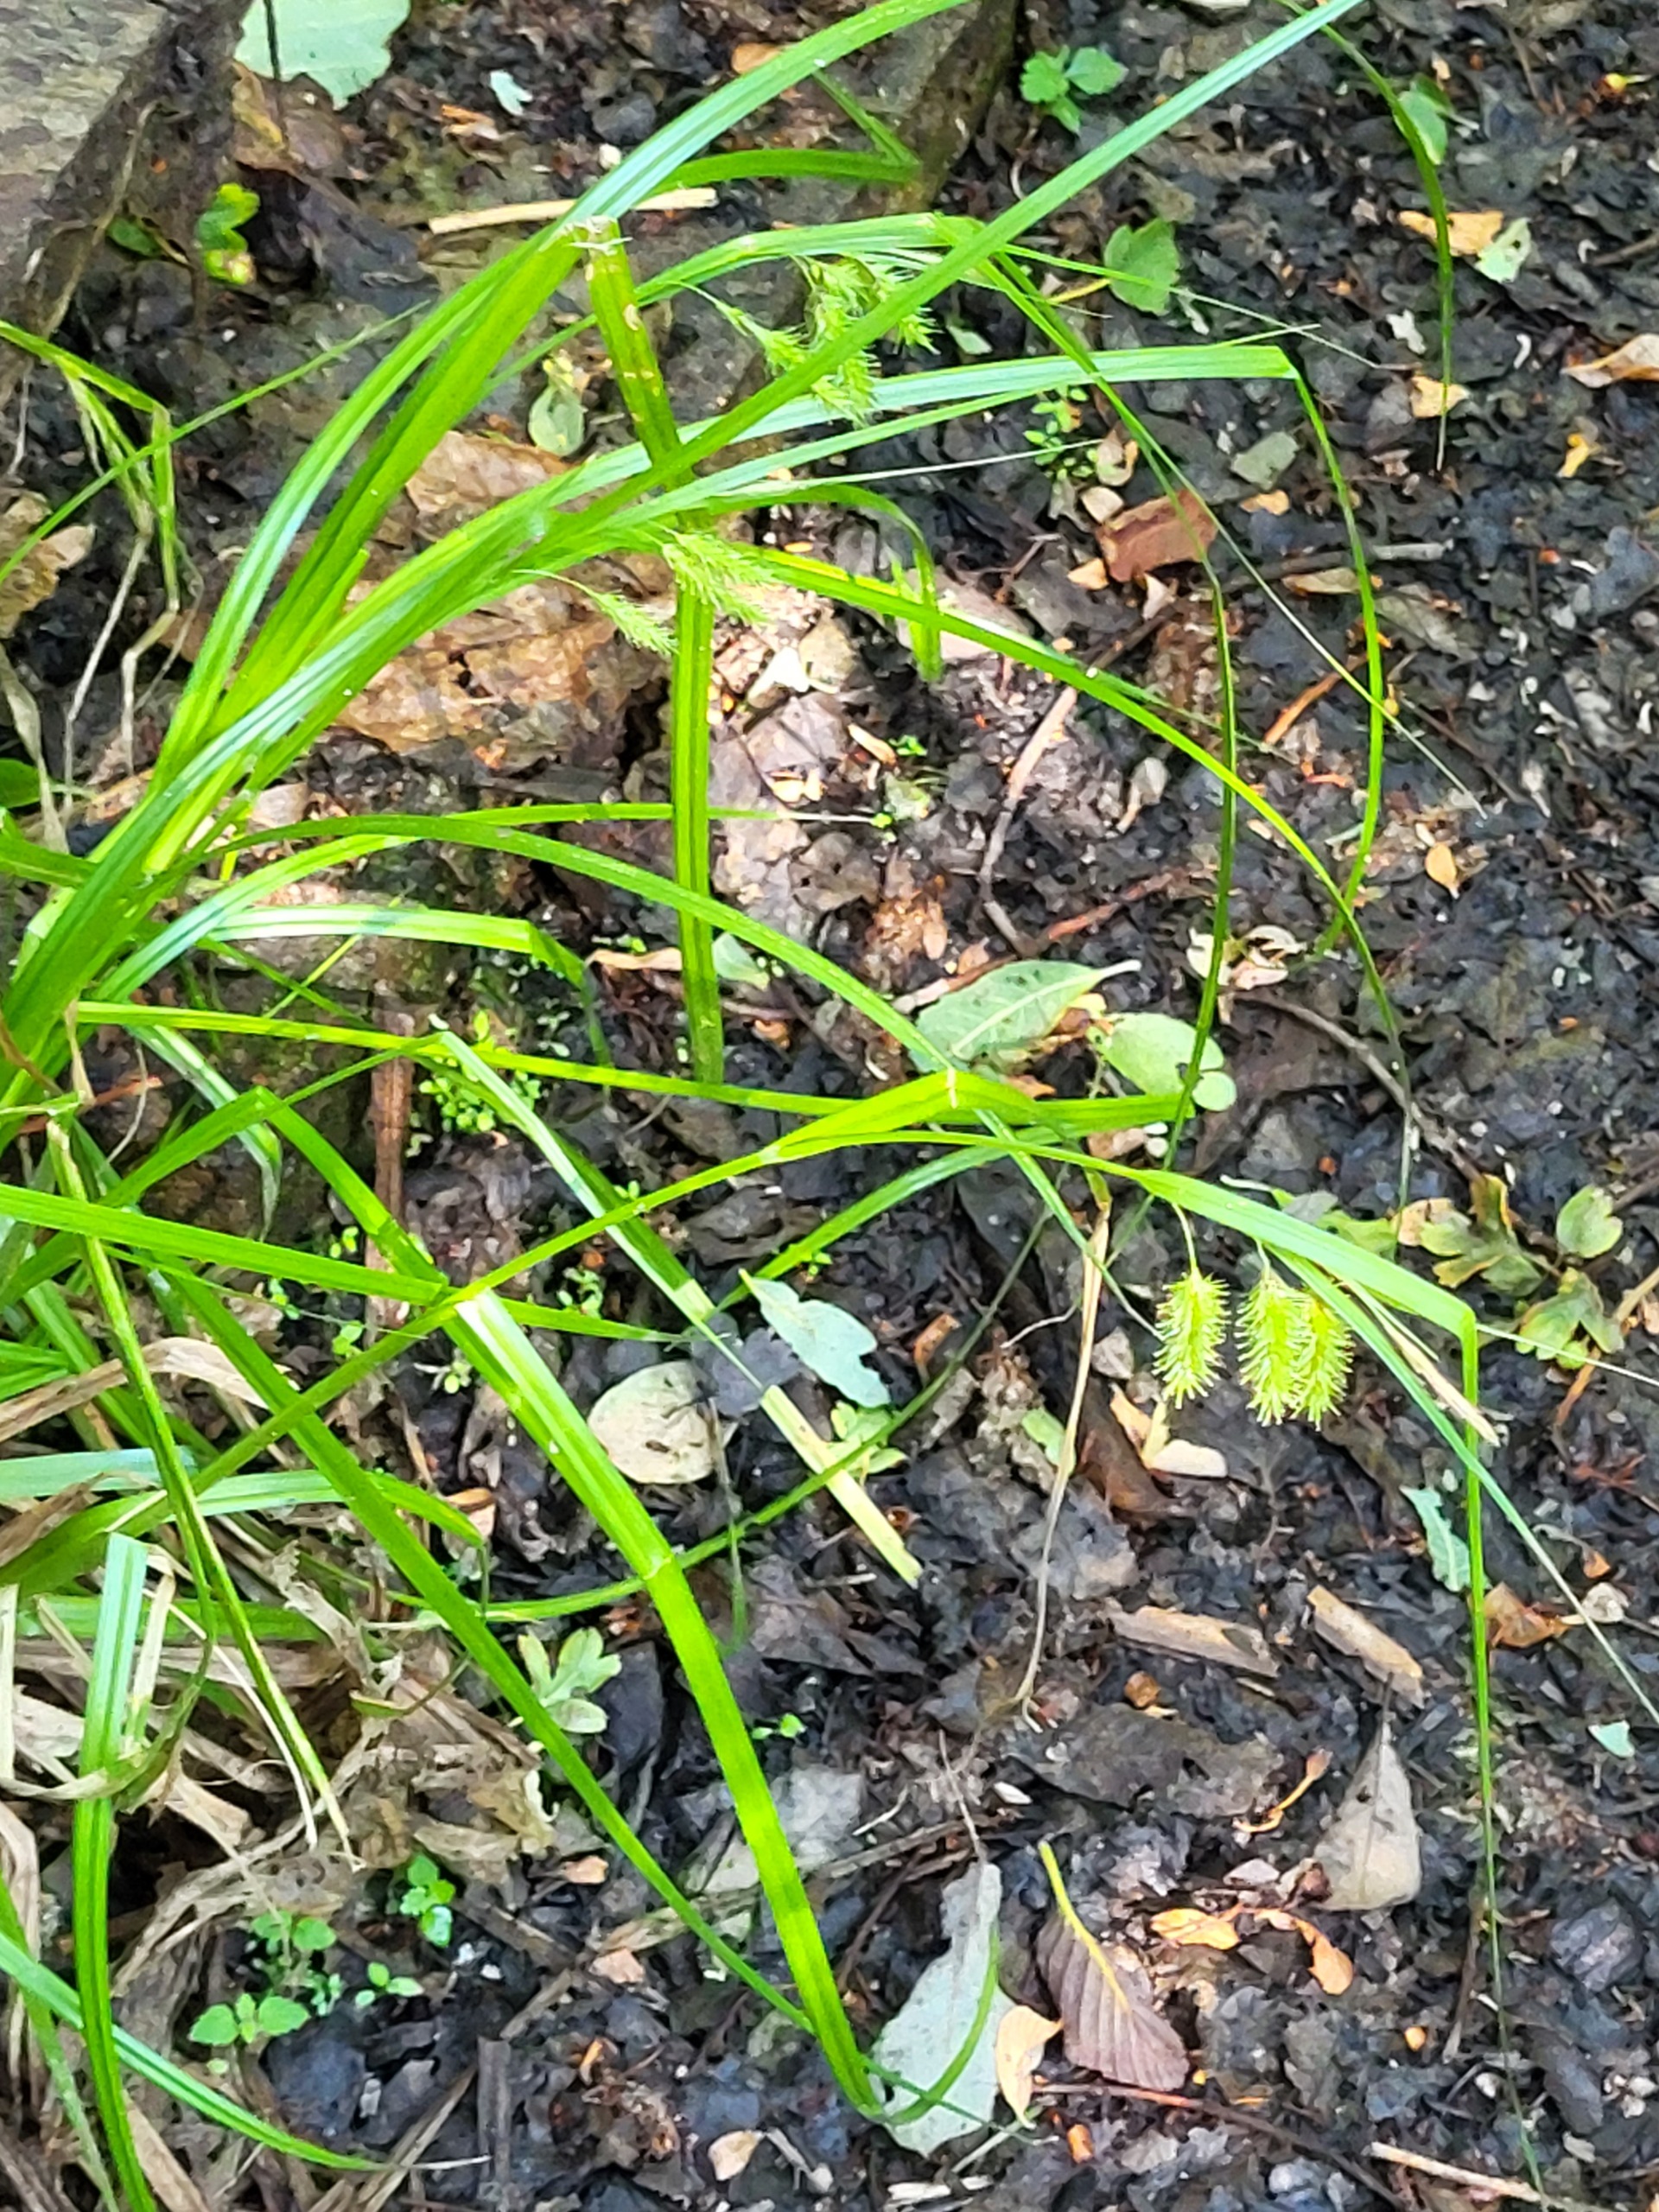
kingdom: Plantae
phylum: Tracheophyta
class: Liliopsida
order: Poales
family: Cyperaceae
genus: Carex
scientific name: Carex pseudocyperus
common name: Knippe-star
